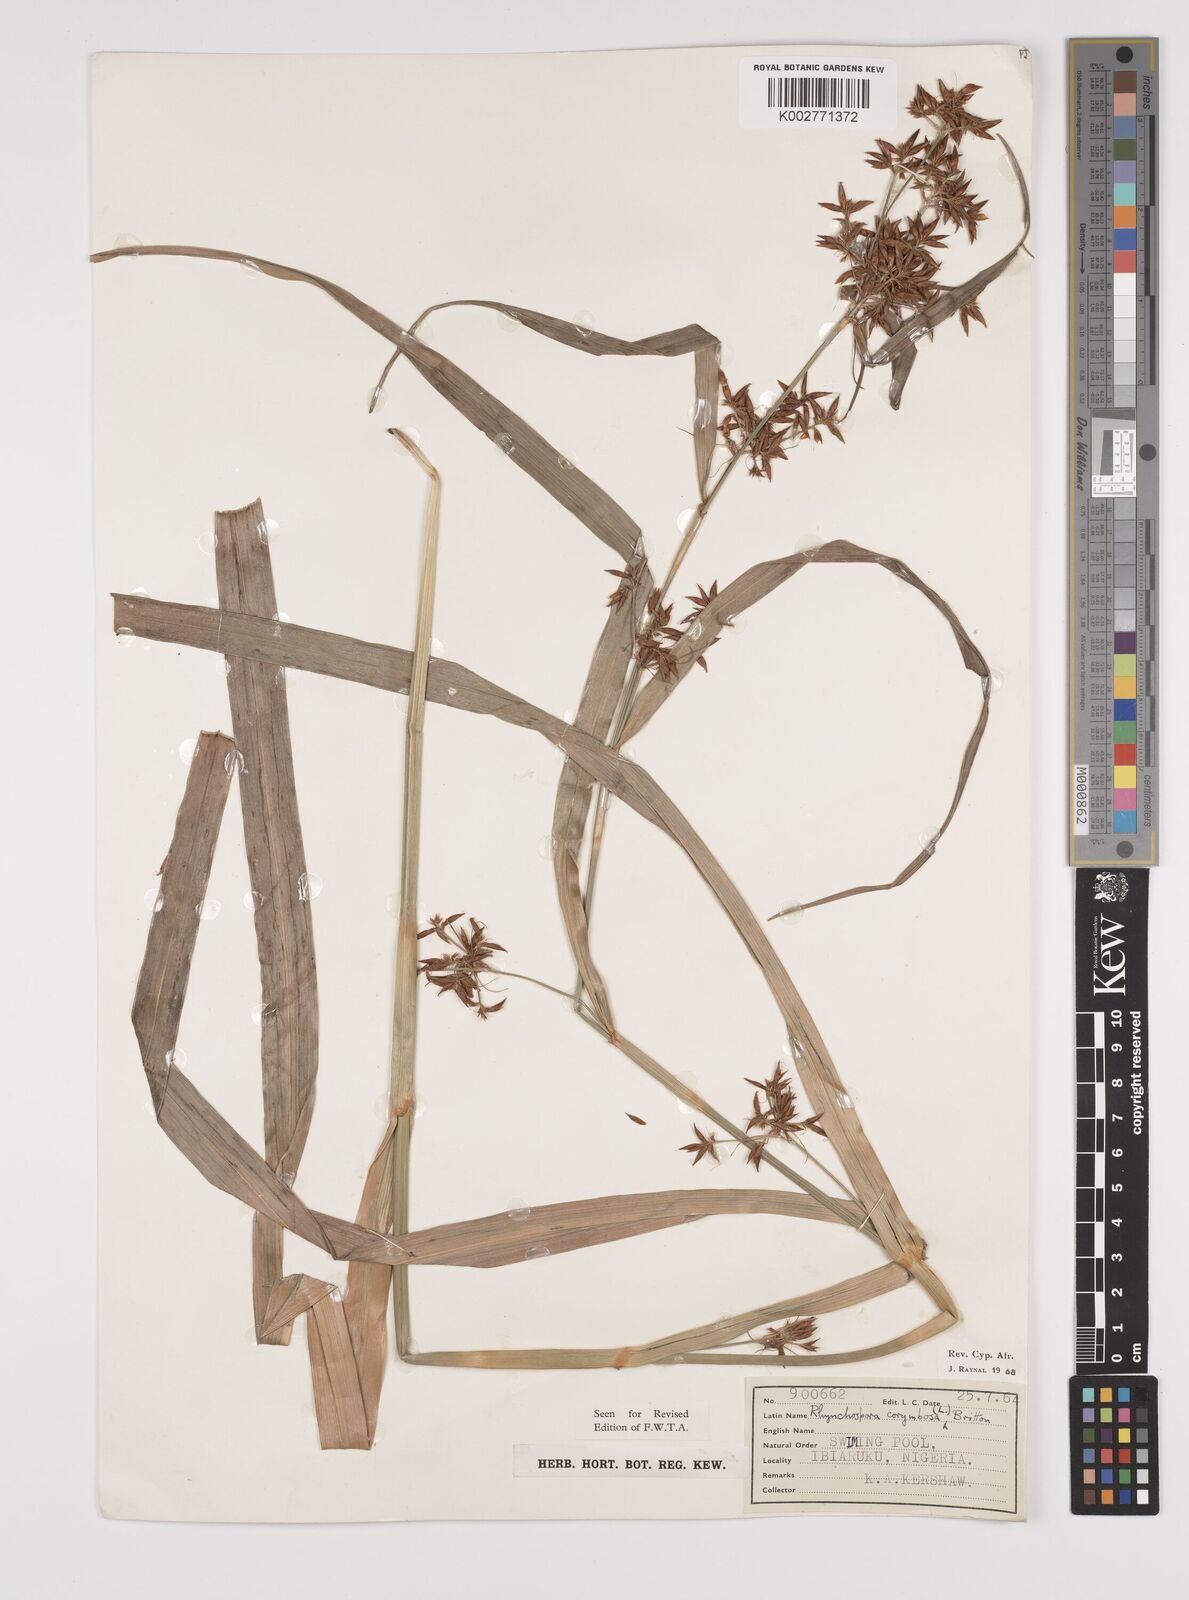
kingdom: Plantae
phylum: Tracheophyta
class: Liliopsida
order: Poales
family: Cyperaceae
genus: Rhynchospora
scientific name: Rhynchospora corymbosa
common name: Golden beak sedge
